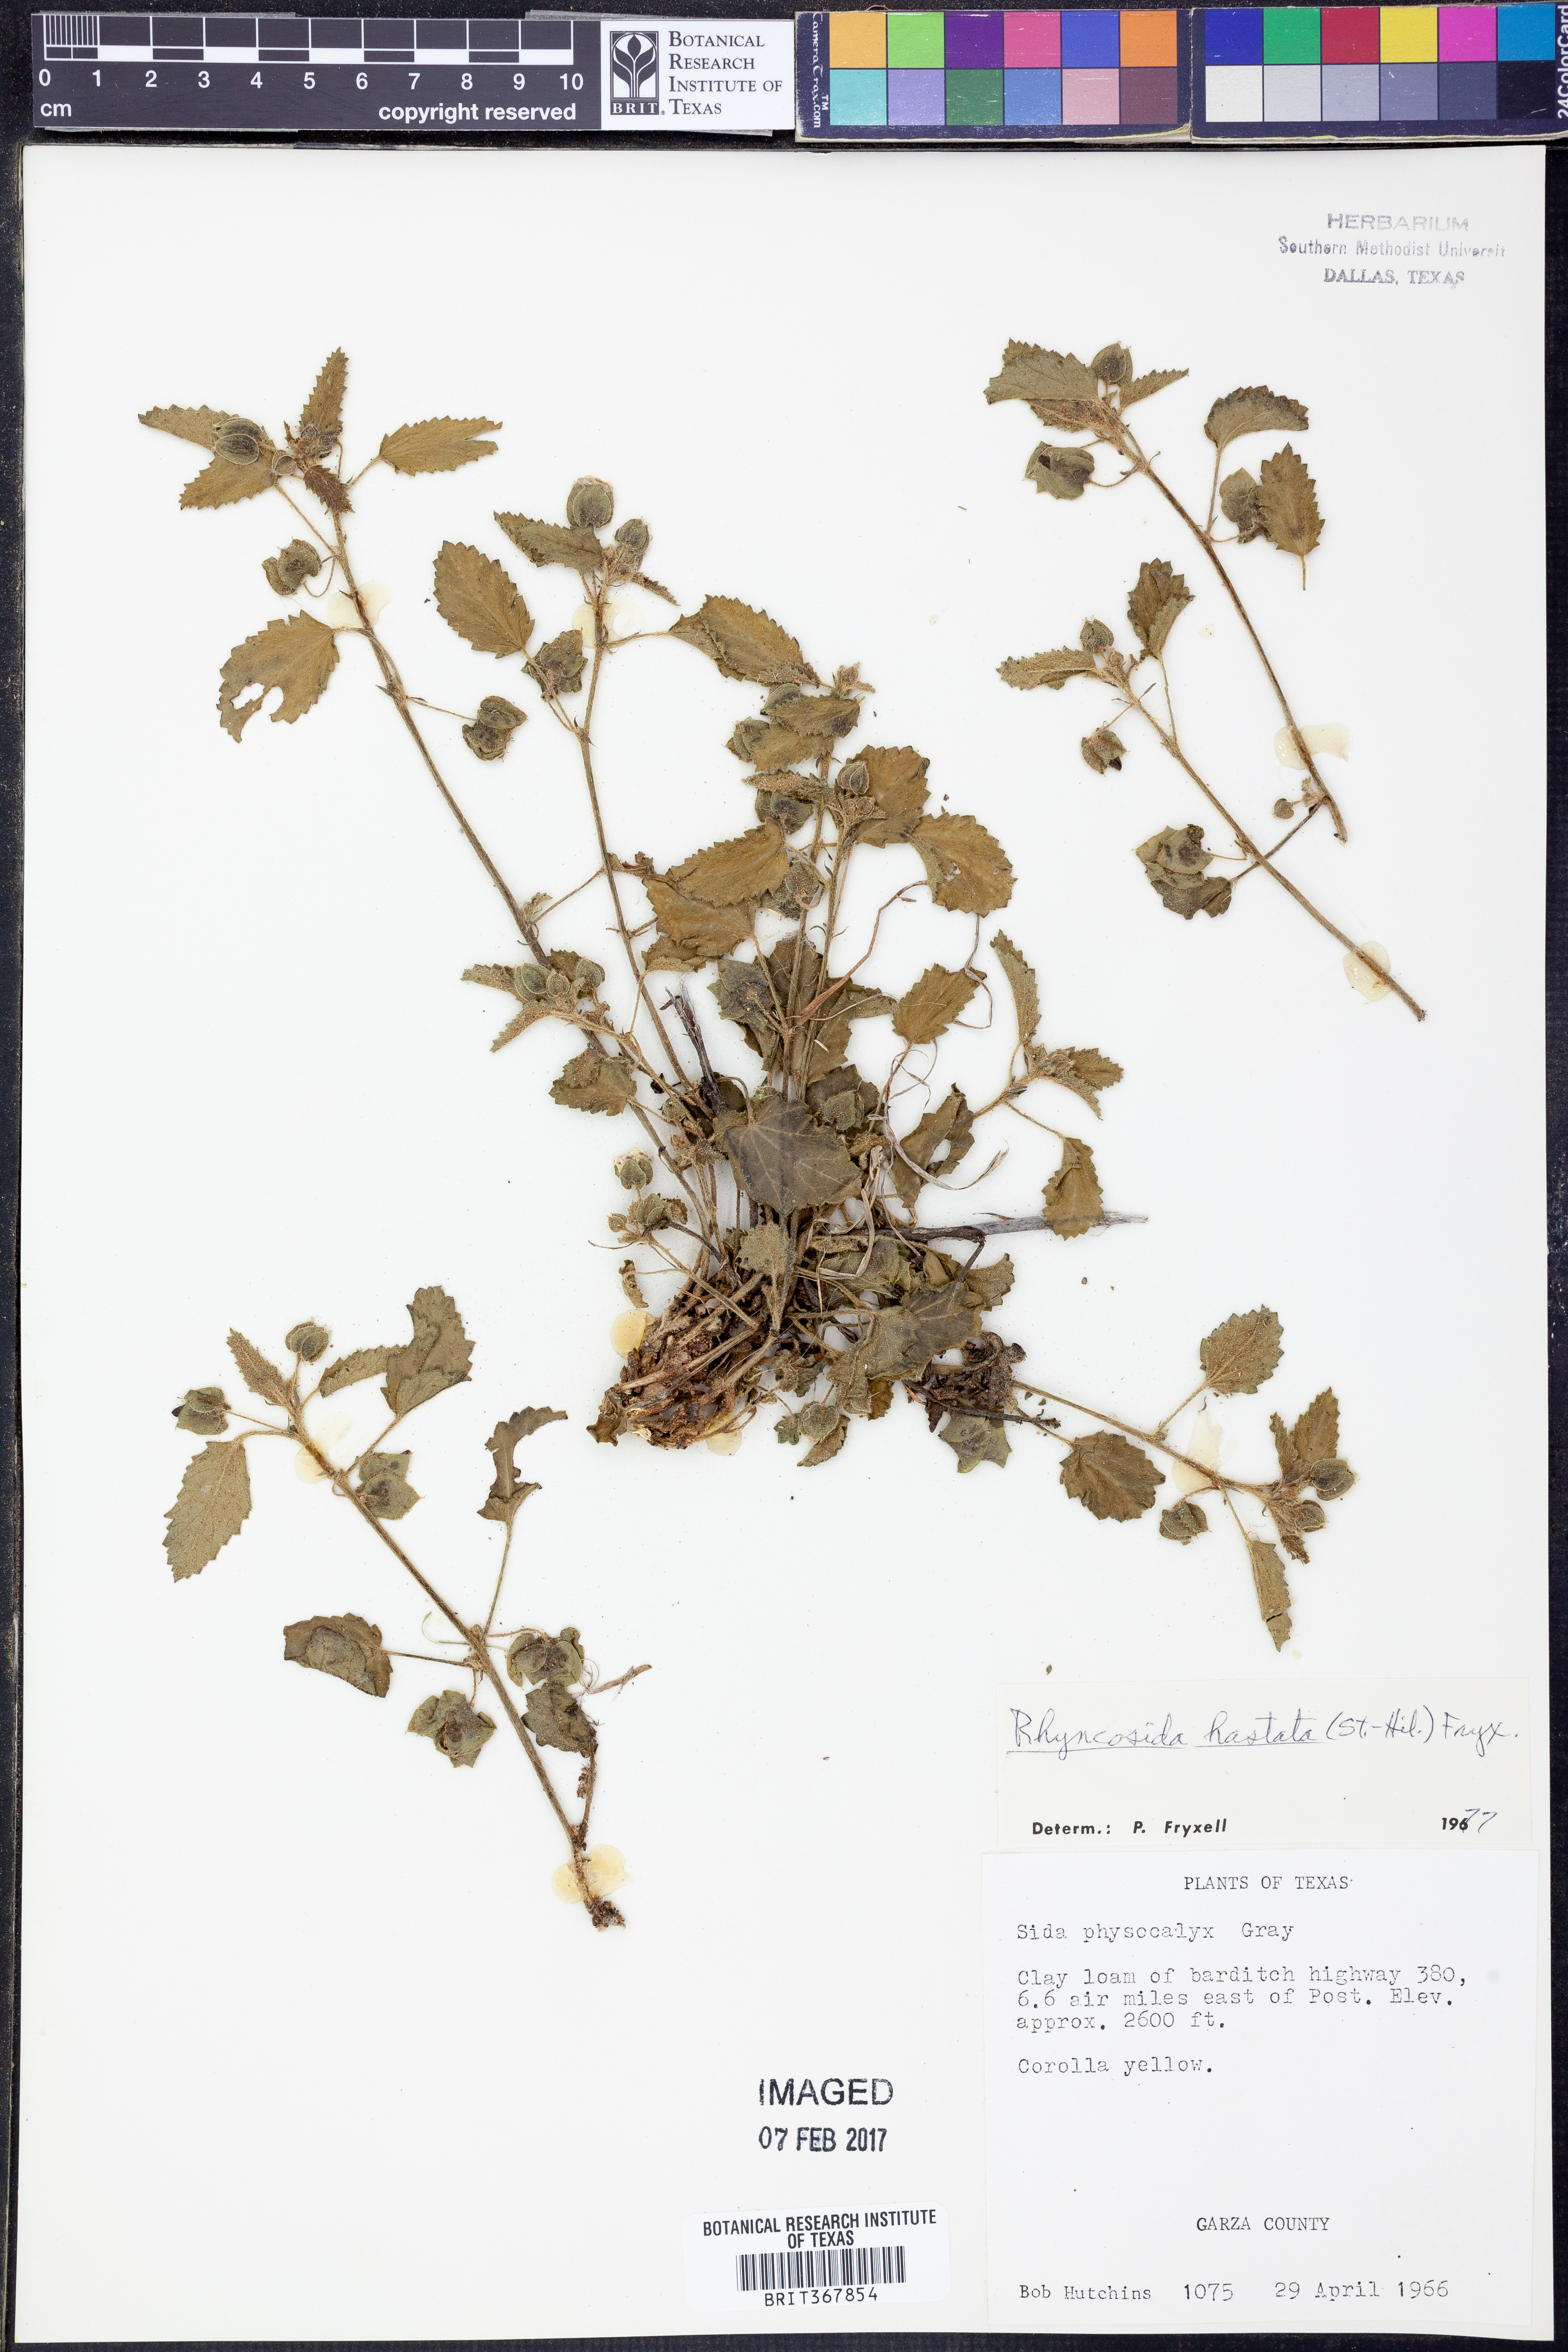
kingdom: Plantae
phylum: Tracheophyta
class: Magnoliopsida
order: Malvales
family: Malvaceae
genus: Rhynchosida
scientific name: Rhynchosida
